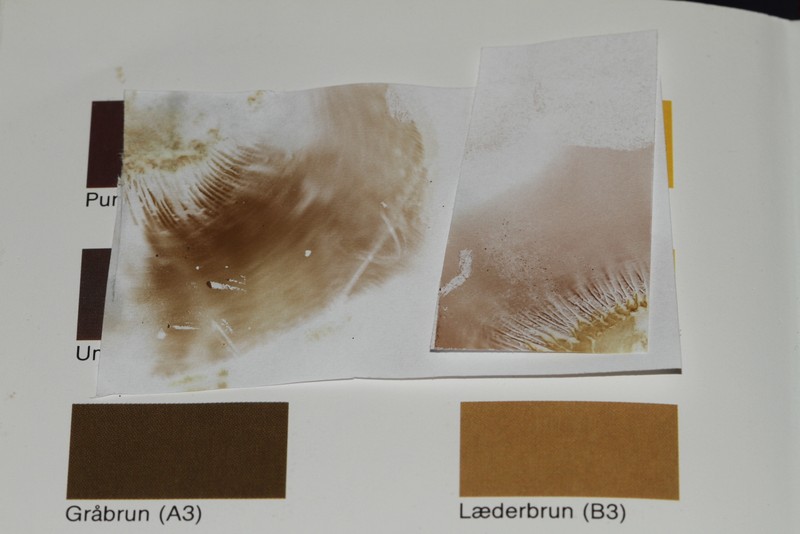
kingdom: Fungi
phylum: Basidiomycota
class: Agaricomycetes
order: Boletales
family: Paxillaceae
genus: Paxillus
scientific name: Paxillus ammoniavirescens
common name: olivensporet netbladhat
